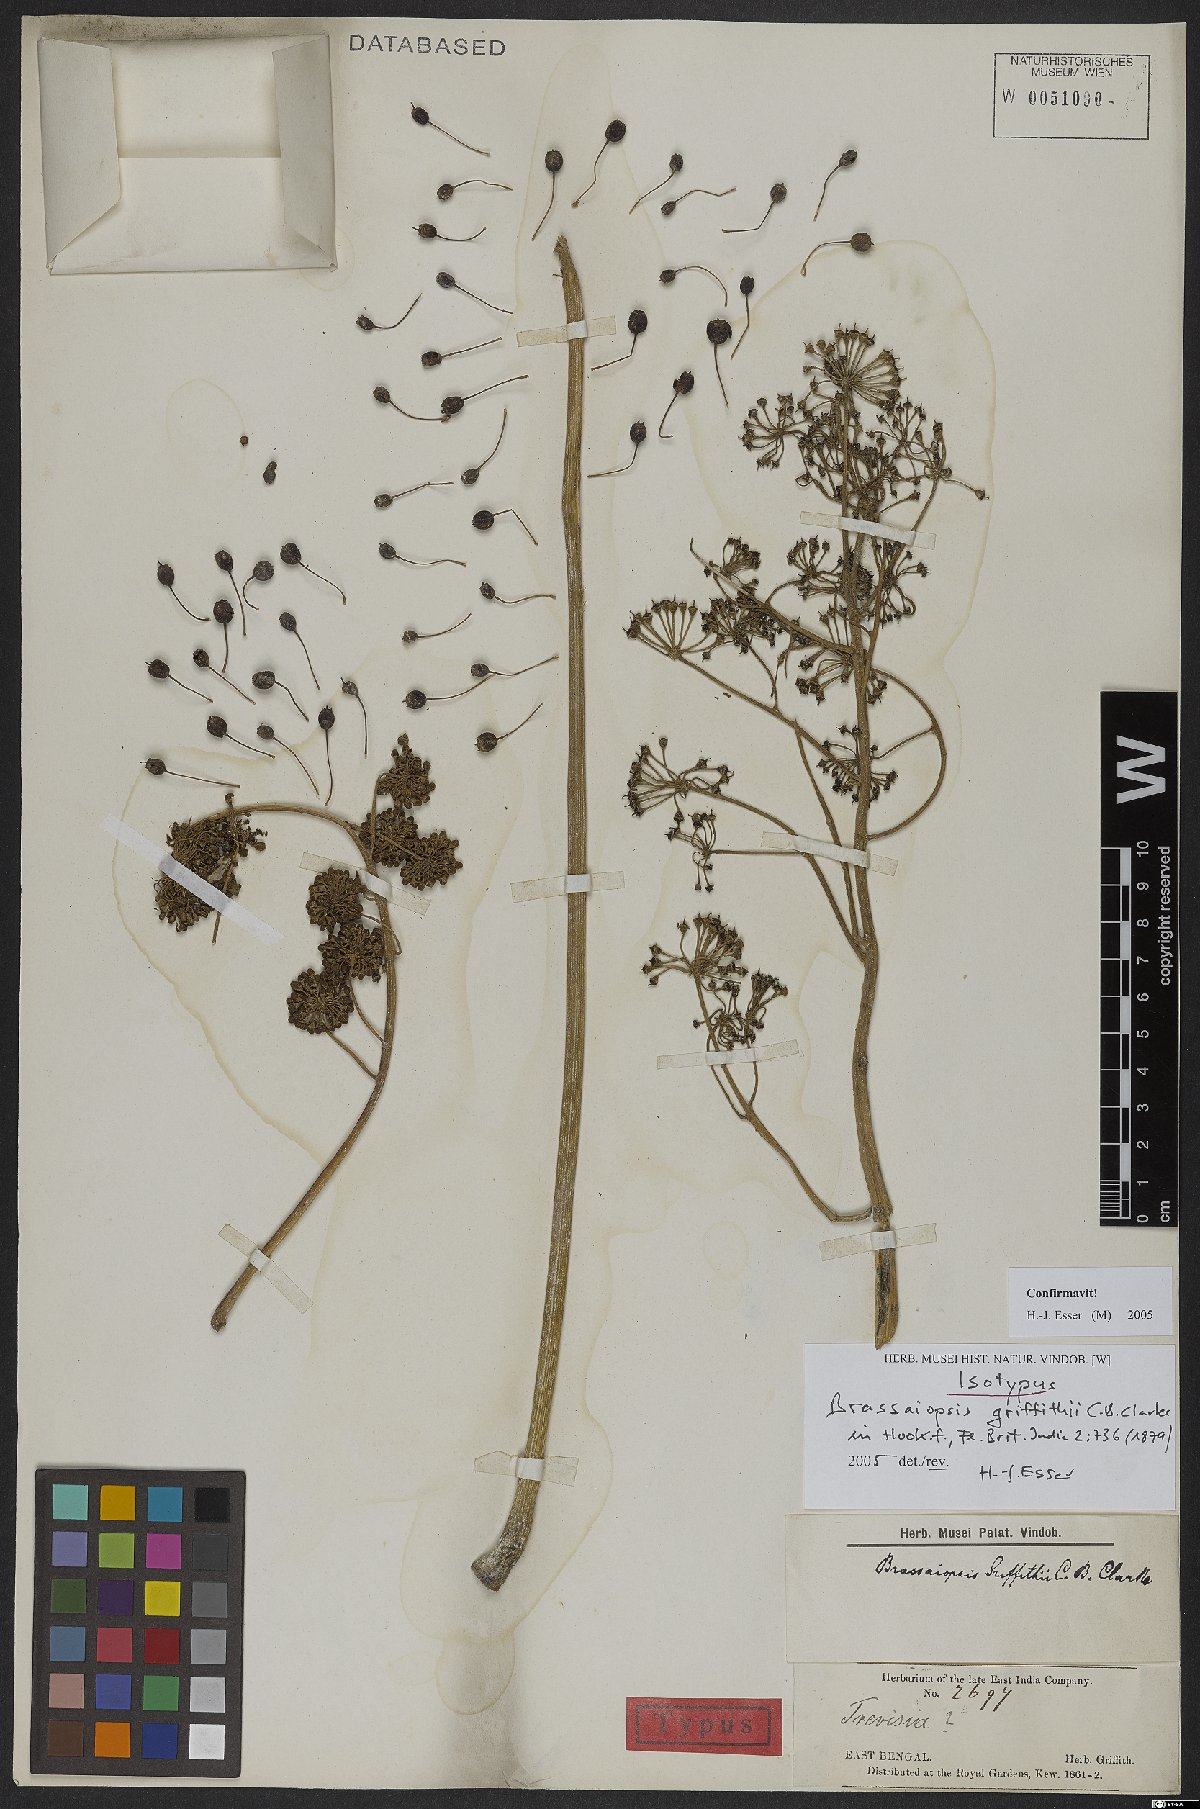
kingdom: Plantae
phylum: Tracheophyta
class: Magnoliopsida
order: Apiales
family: Araliaceae
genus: Brassaiopsis
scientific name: Brassaiopsis griffithii
